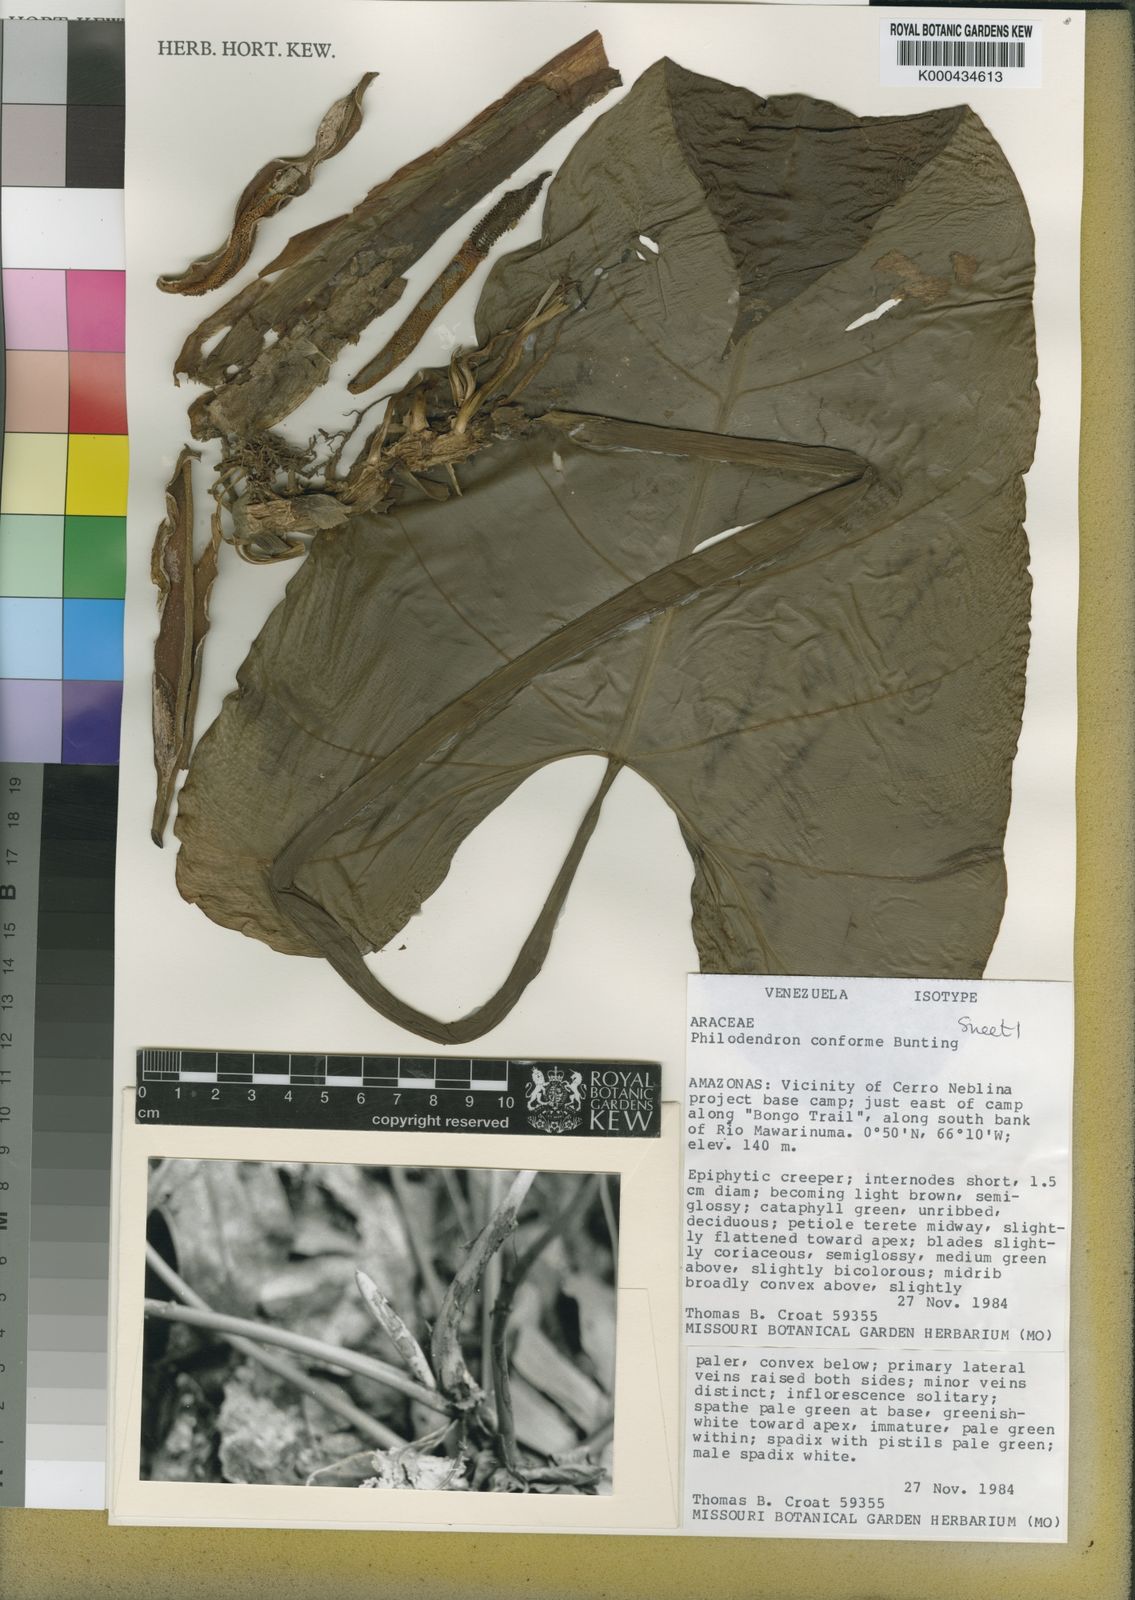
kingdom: Plantae
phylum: Tracheophyta
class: Liliopsida
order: Alismatales
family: Araceae
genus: Philodendron
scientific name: Philodendron conforme
